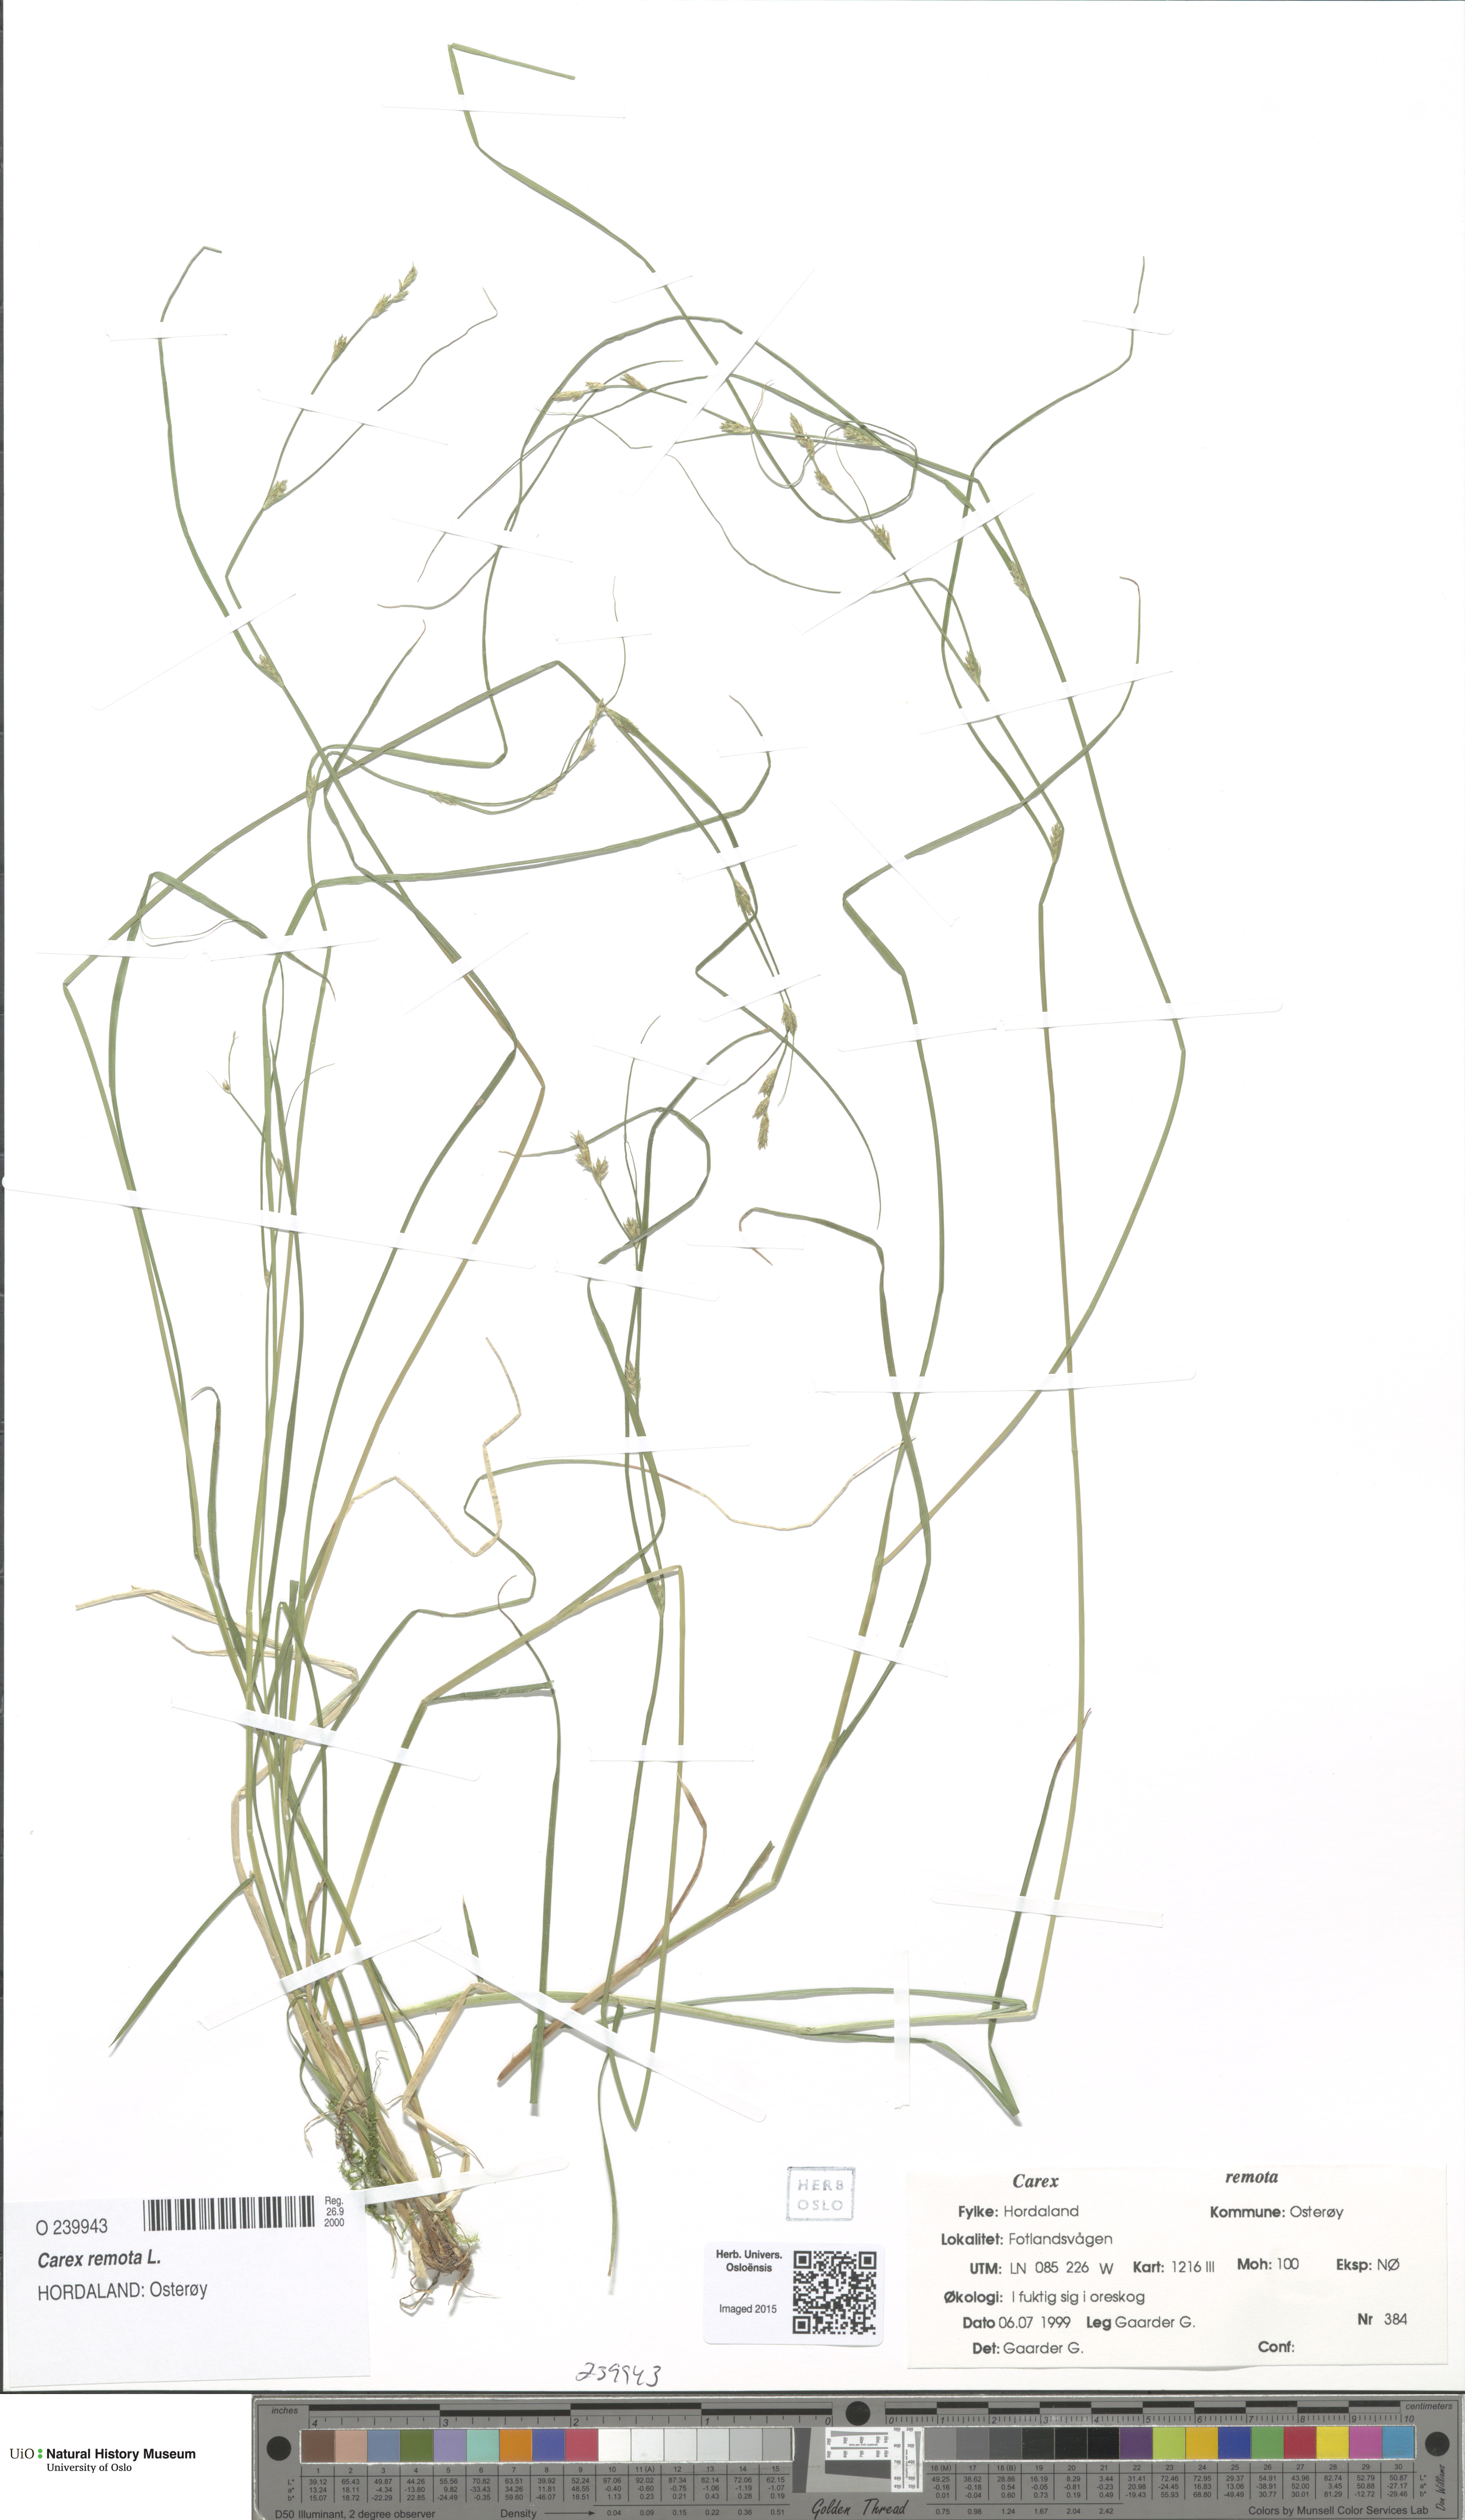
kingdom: Plantae
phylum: Tracheophyta
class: Liliopsida
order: Poales
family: Cyperaceae
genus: Carex
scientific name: Carex remota
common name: Remote sedge
